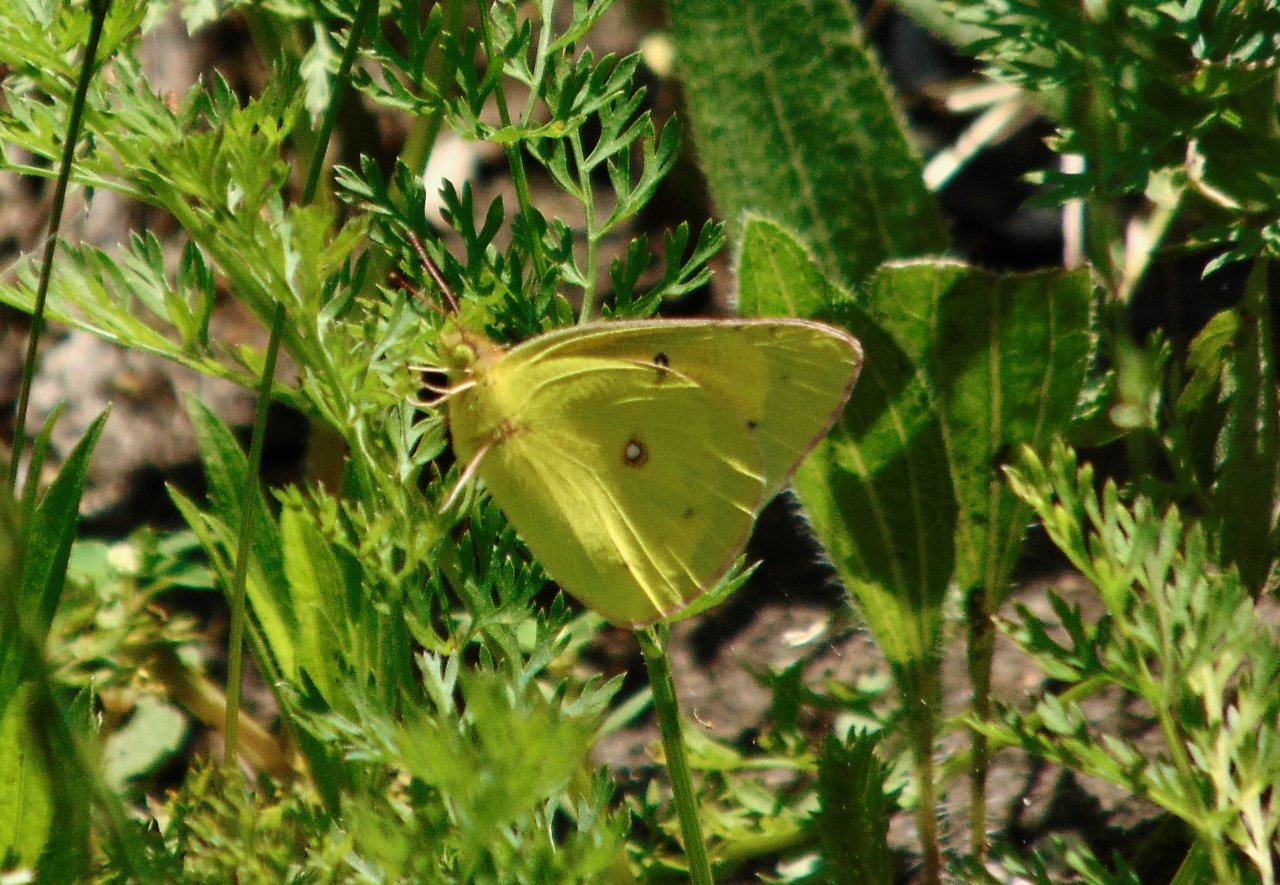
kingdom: Animalia
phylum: Arthropoda
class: Insecta
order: Lepidoptera
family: Pieridae
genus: Colias
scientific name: Colias eurytheme
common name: Orange Sulphur
